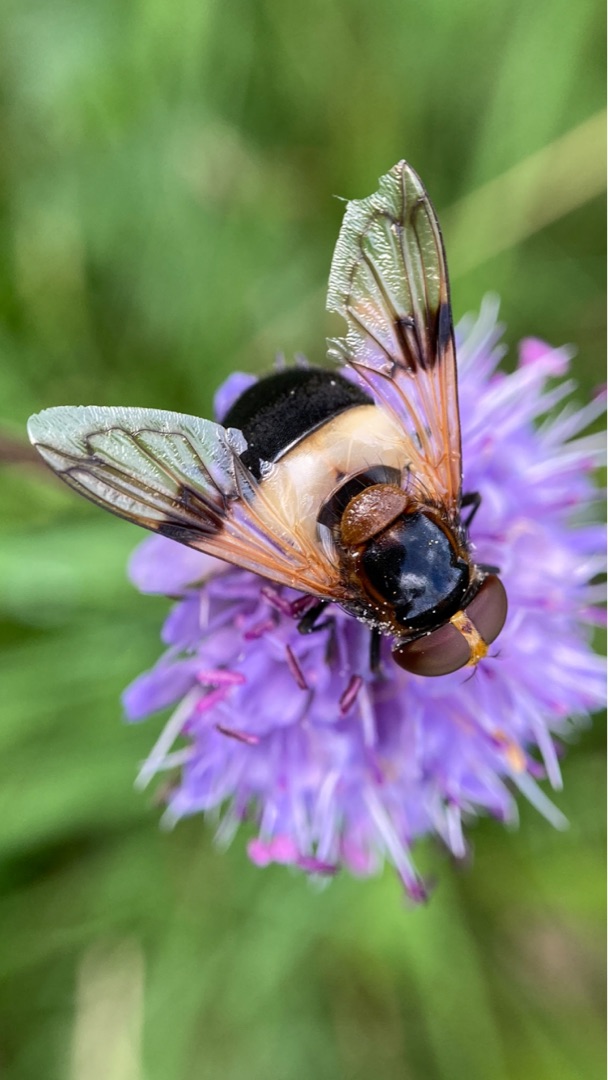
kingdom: Animalia
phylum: Arthropoda
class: Insecta
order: Diptera
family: Syrphidae
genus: Volucella
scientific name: Volucella pellucens
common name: Hvidbåndet humlesvirreflue
